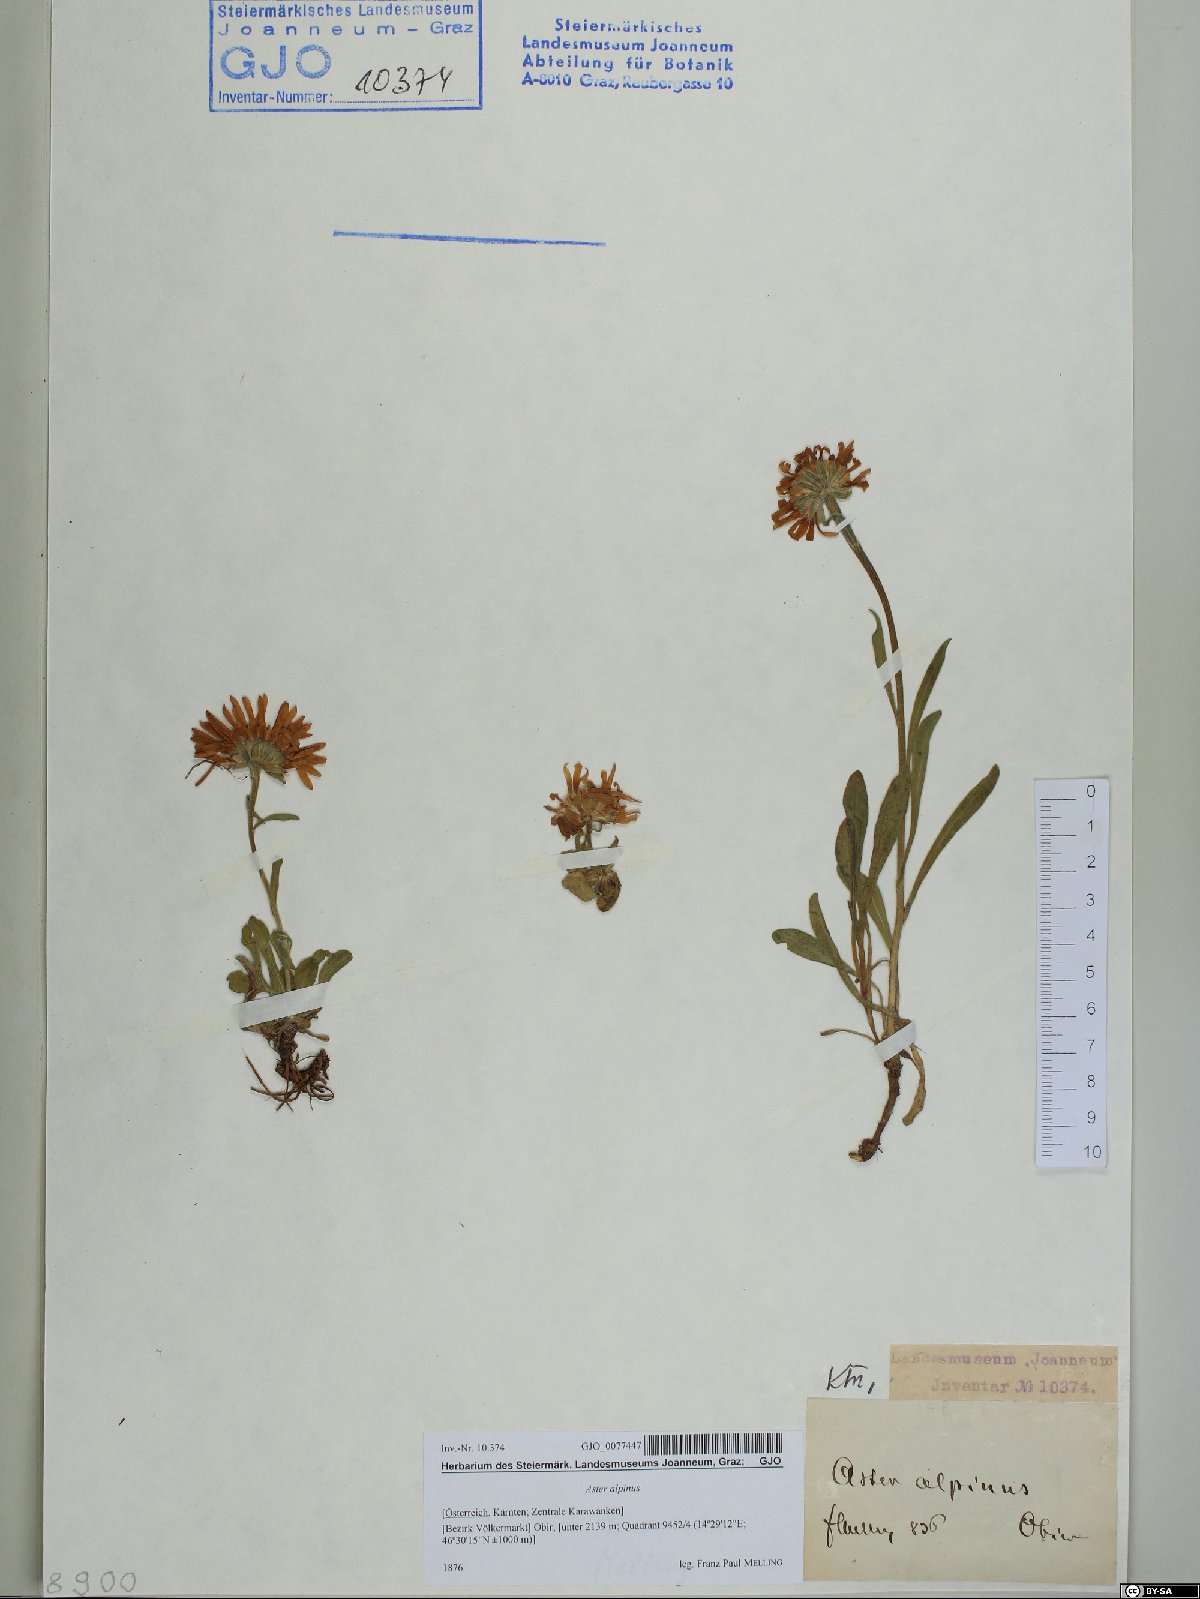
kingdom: Plantae
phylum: Tracheophyta
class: Magnoliopsida
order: Asterales
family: Asteraceae
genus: Aster
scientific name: Aster alpinus
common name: Alpine aster
